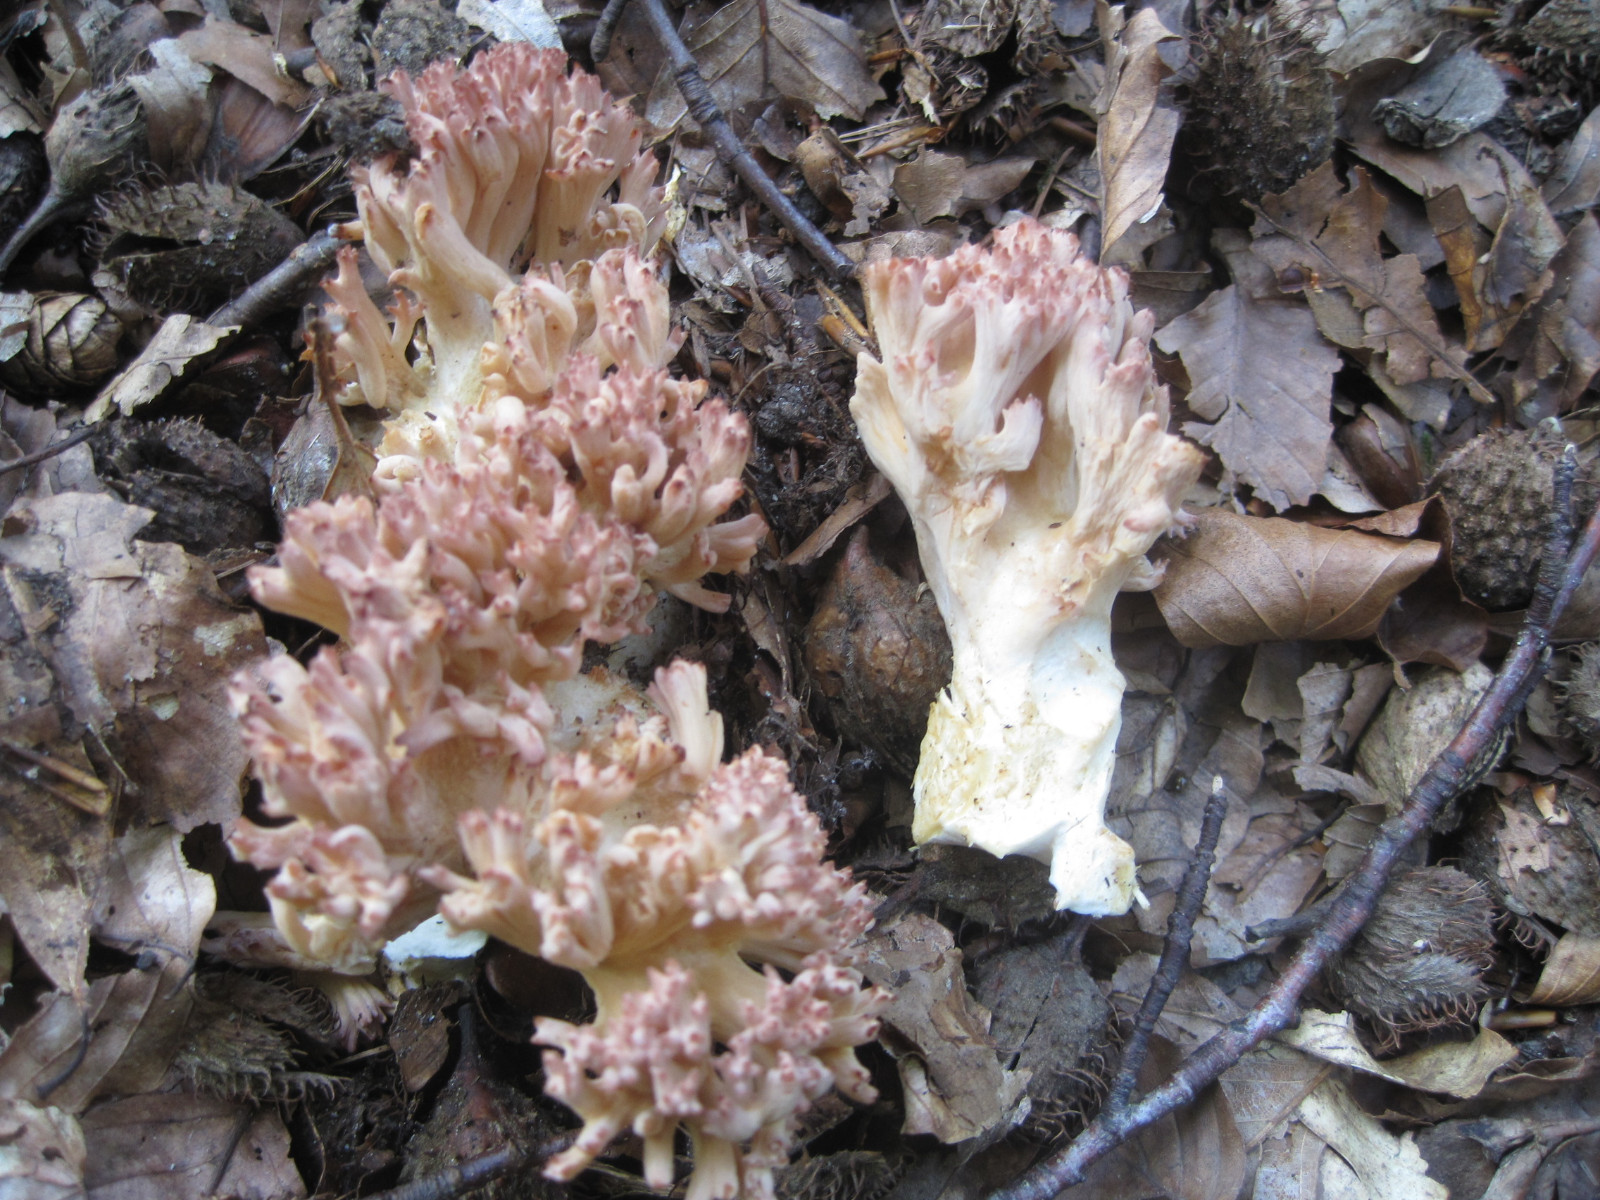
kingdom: Fungi
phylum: Basidiomycota
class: Agaricomycetes
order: Gomphales
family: Gomphaceae
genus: Ramaria
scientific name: Ramaria botrytis
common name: drue-koralsvamp
